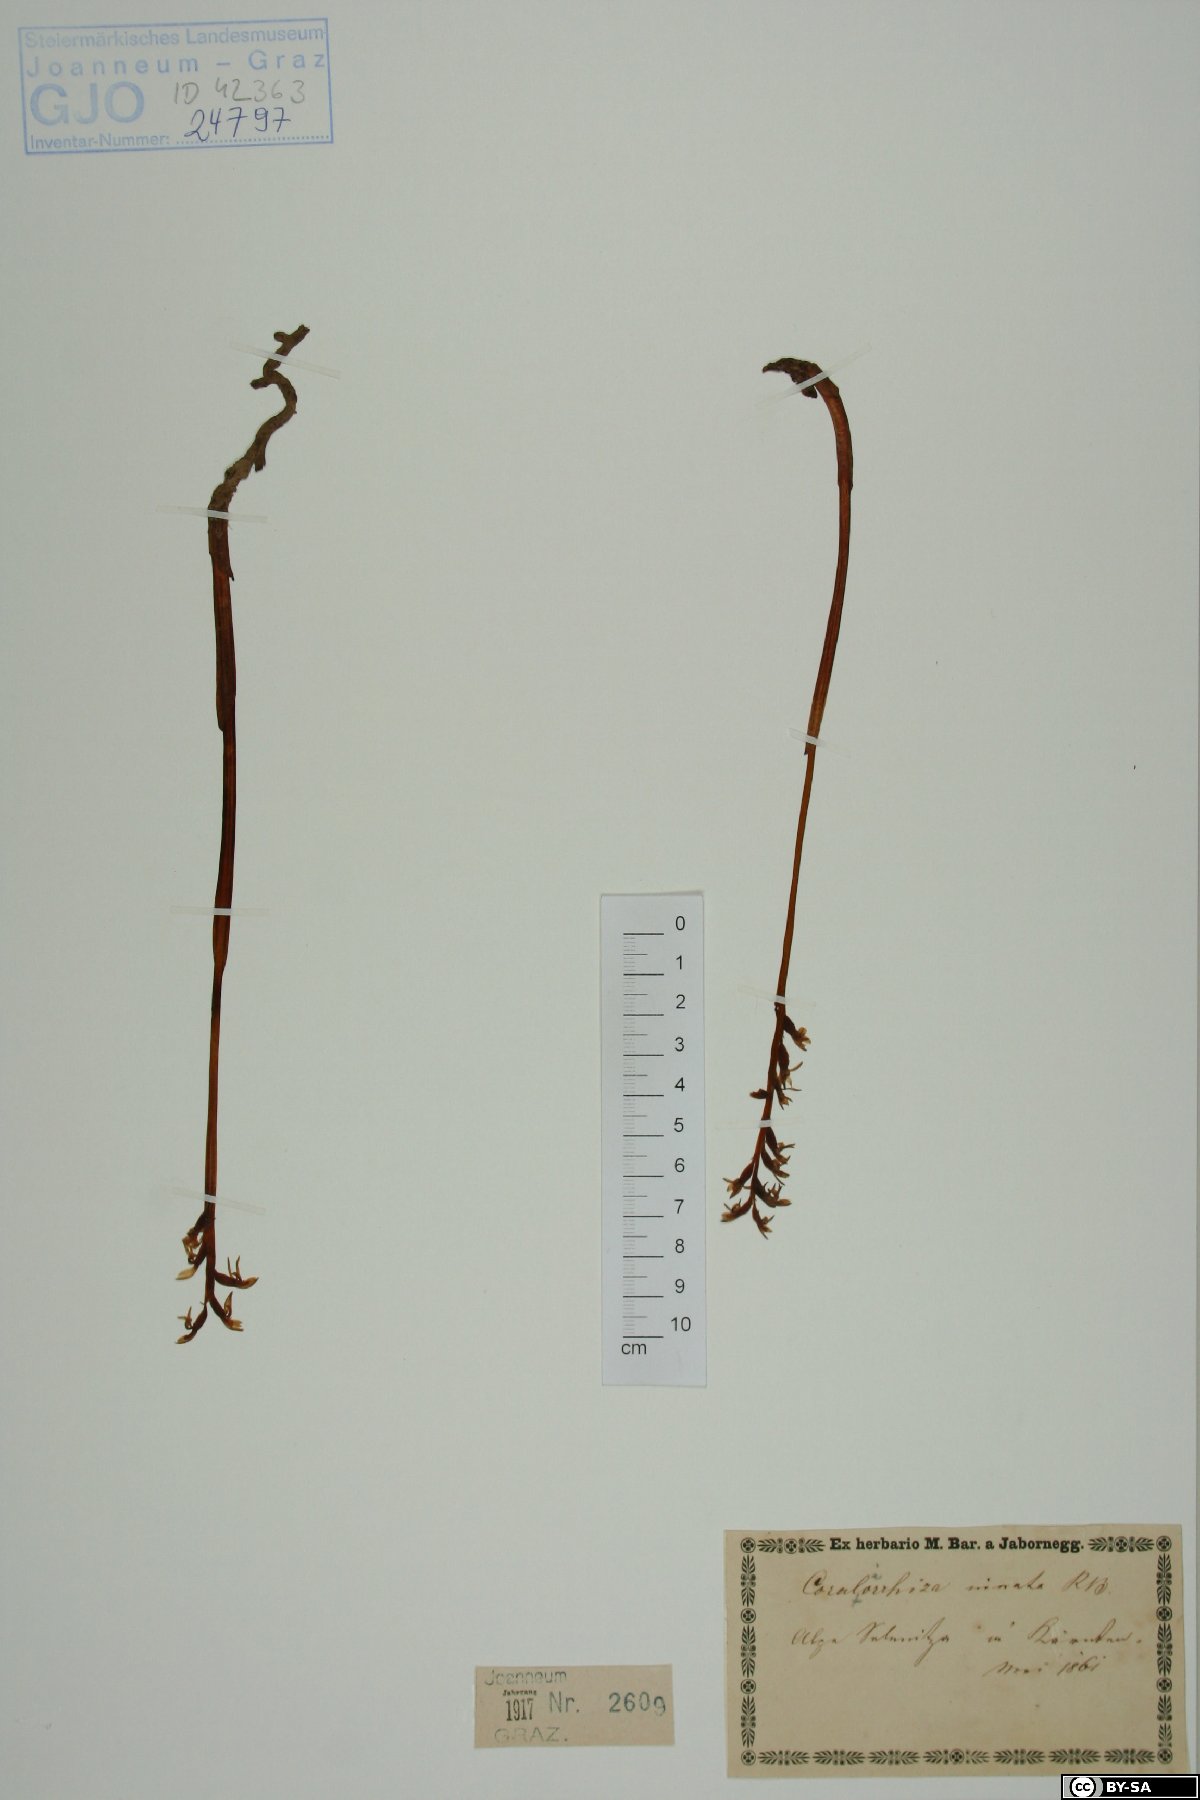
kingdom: Plantae
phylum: Tracheophyta
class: Liliopsida
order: Asparagales
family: Orchidaceae
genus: Corallorhiza
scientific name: Corallorhiza trifida
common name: Yellow coralroot
